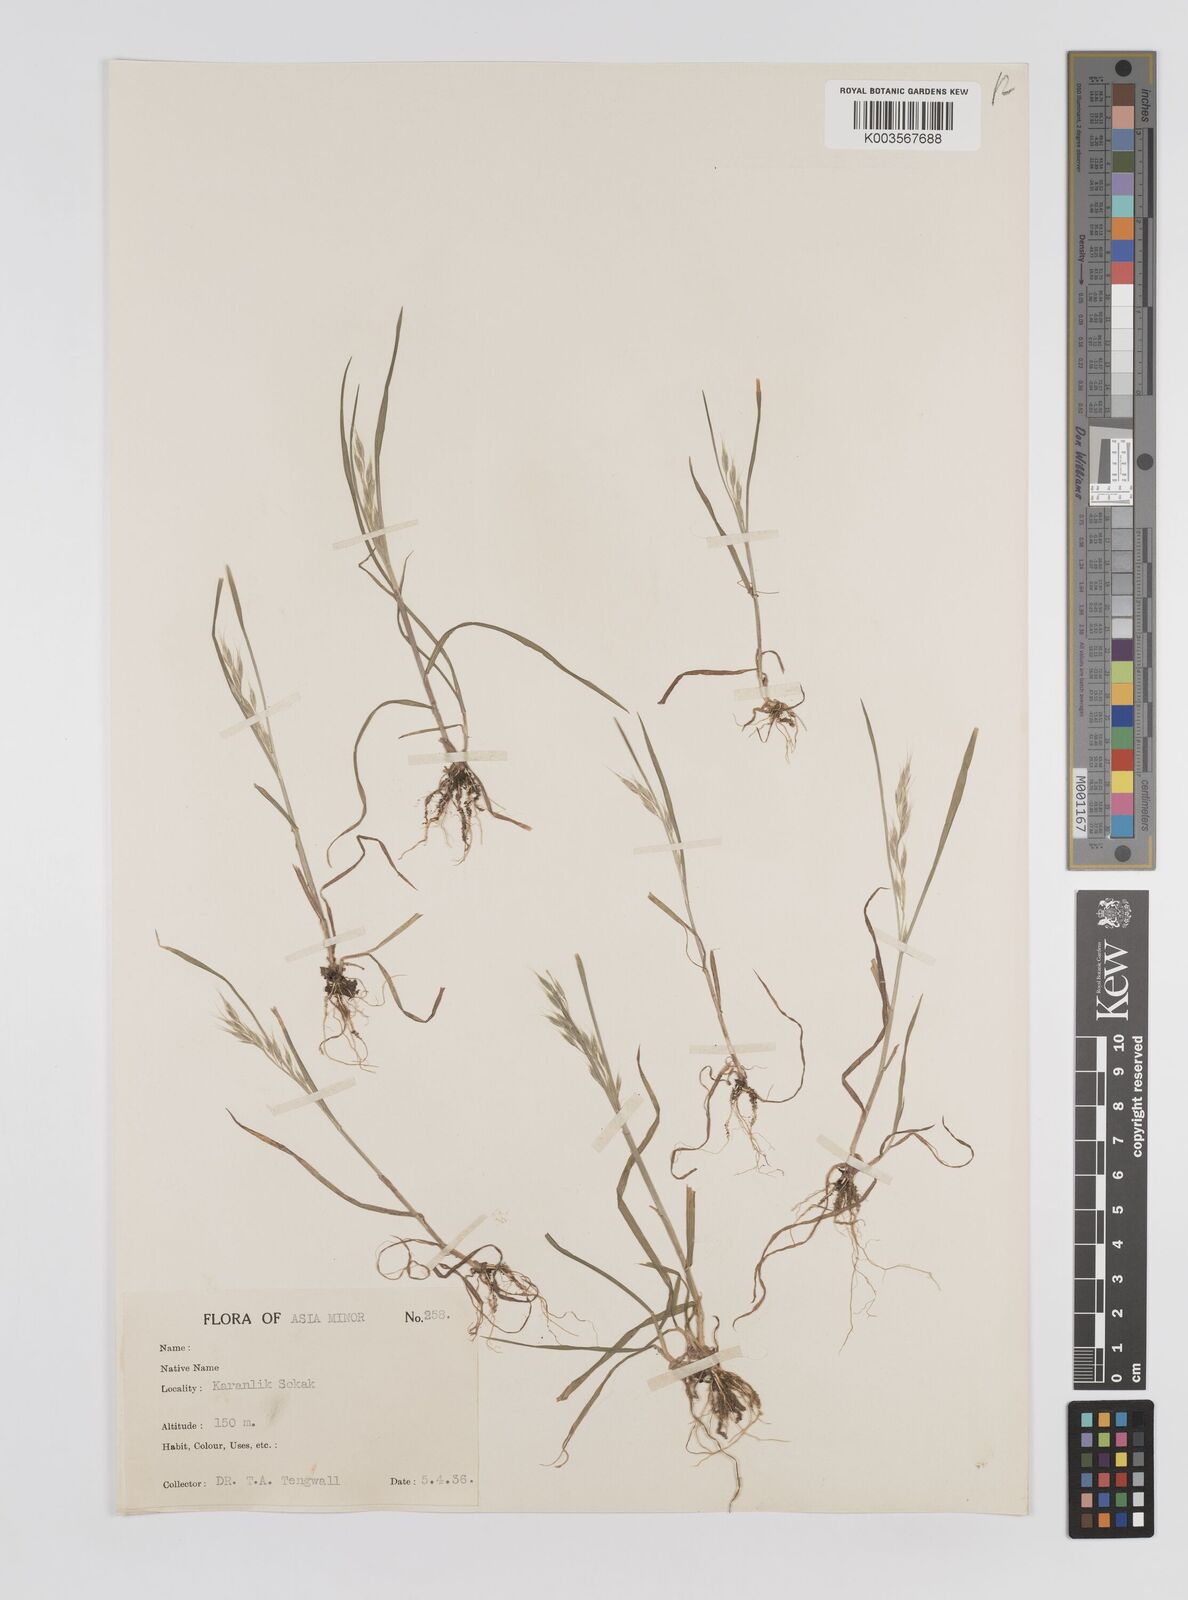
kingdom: Plantae
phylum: Tracheophyta
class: Liliopsida
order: Poales
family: Poaceae
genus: Bromus
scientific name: Bromus
